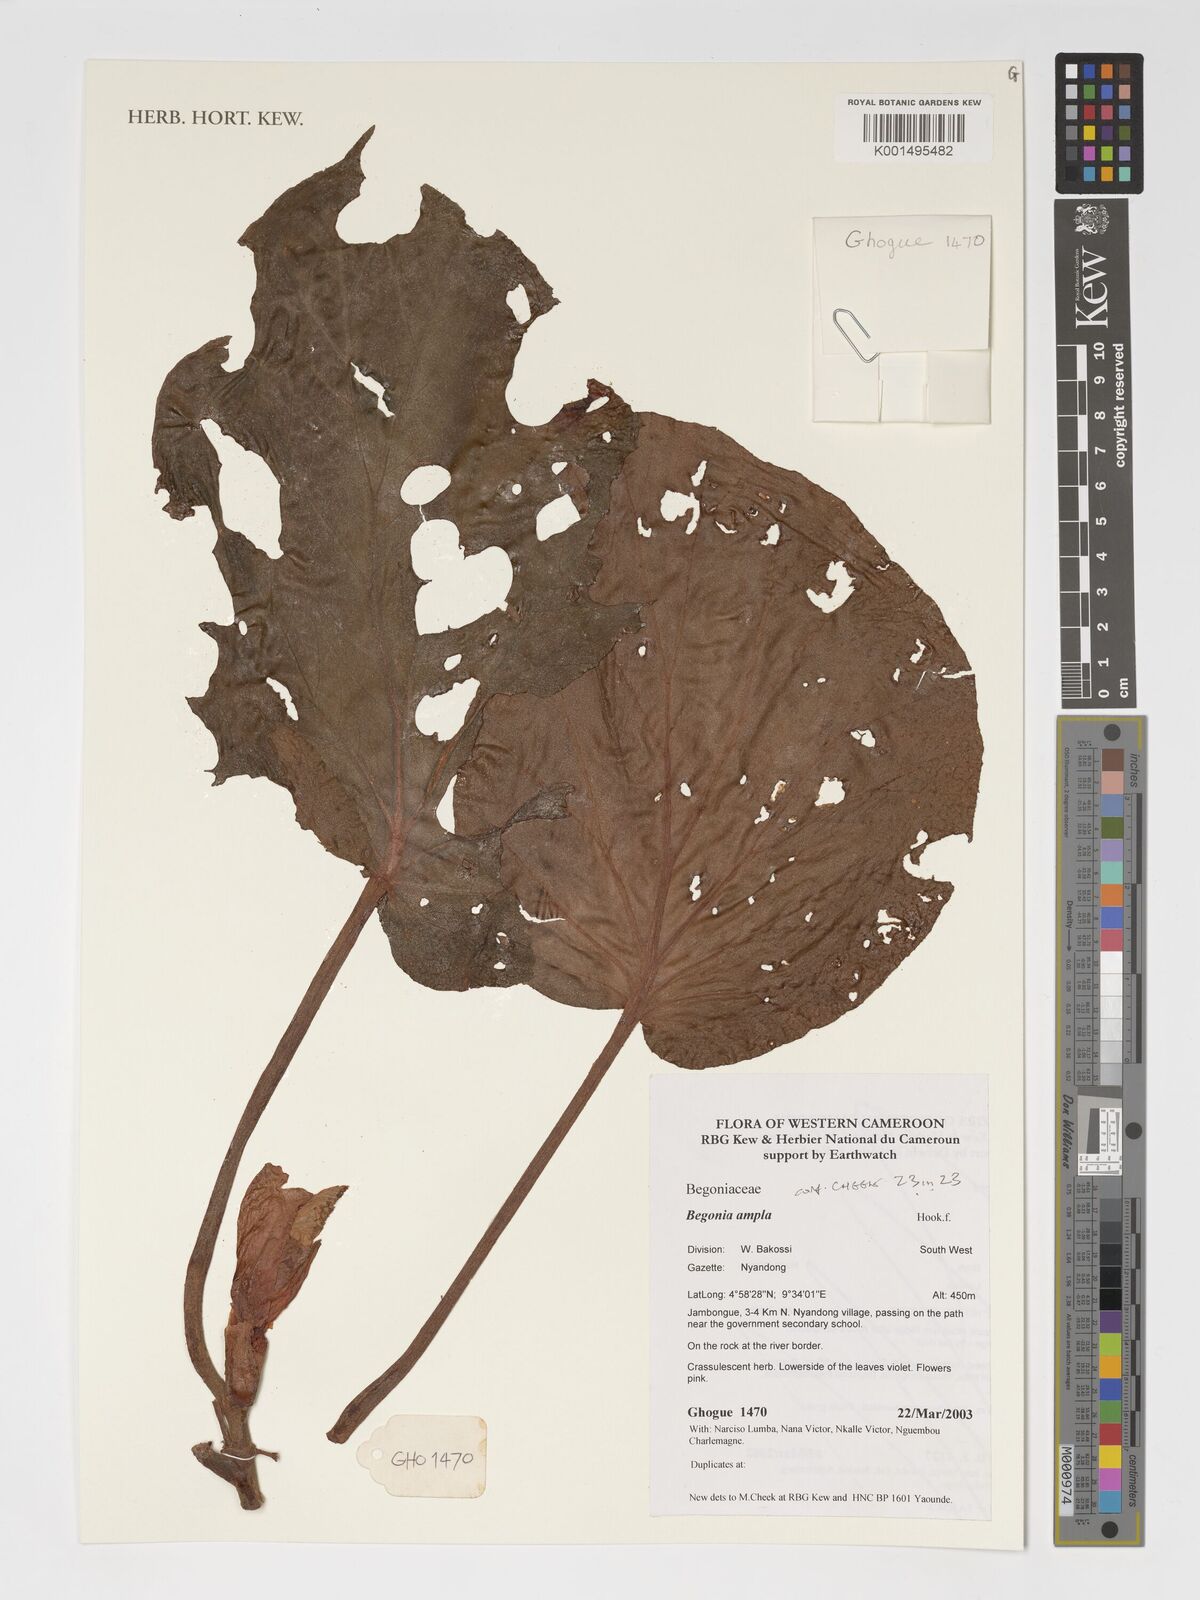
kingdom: Plantae
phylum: Tracheophyta
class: Magnoliopsida
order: Cucurbitales
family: Begoniaceae
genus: Begonia
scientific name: Begonia ampla
